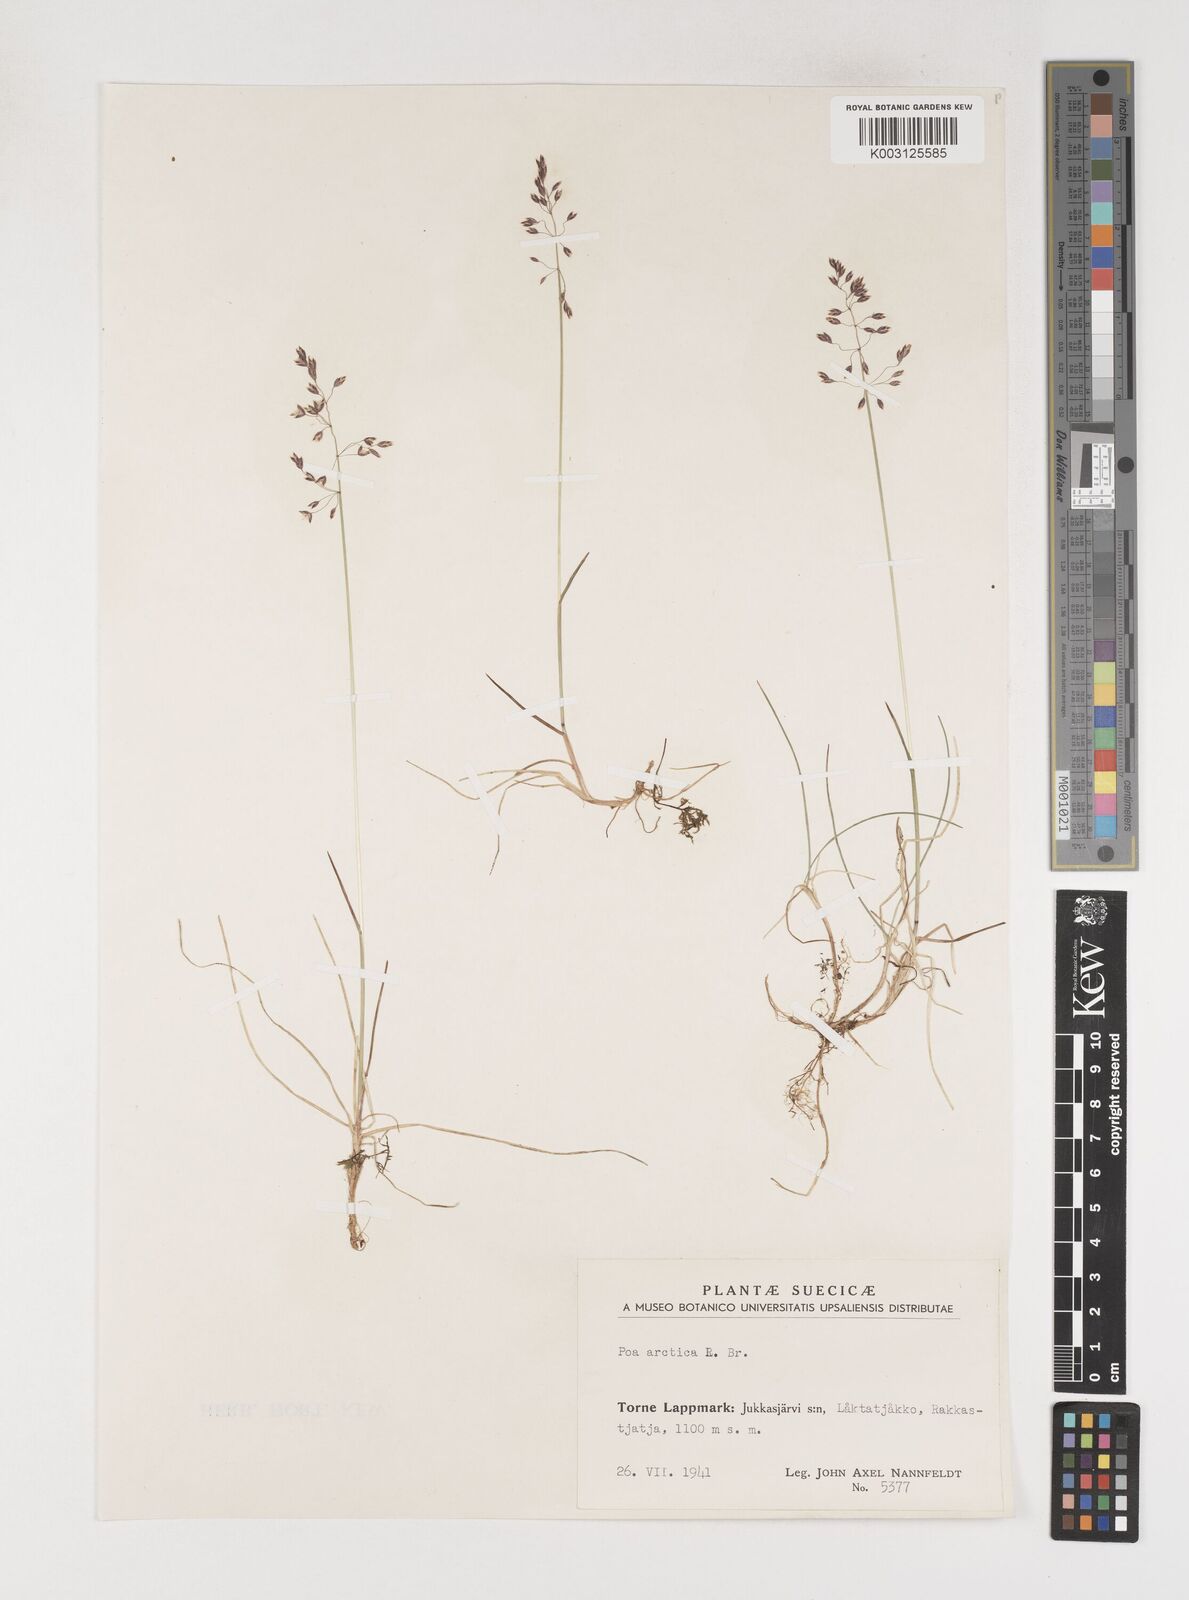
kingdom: Plantae
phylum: Tracheophyta
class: Liliopsida
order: Poales
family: Poaceae
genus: Poa
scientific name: Poa arctica
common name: Arctic bluegrass
